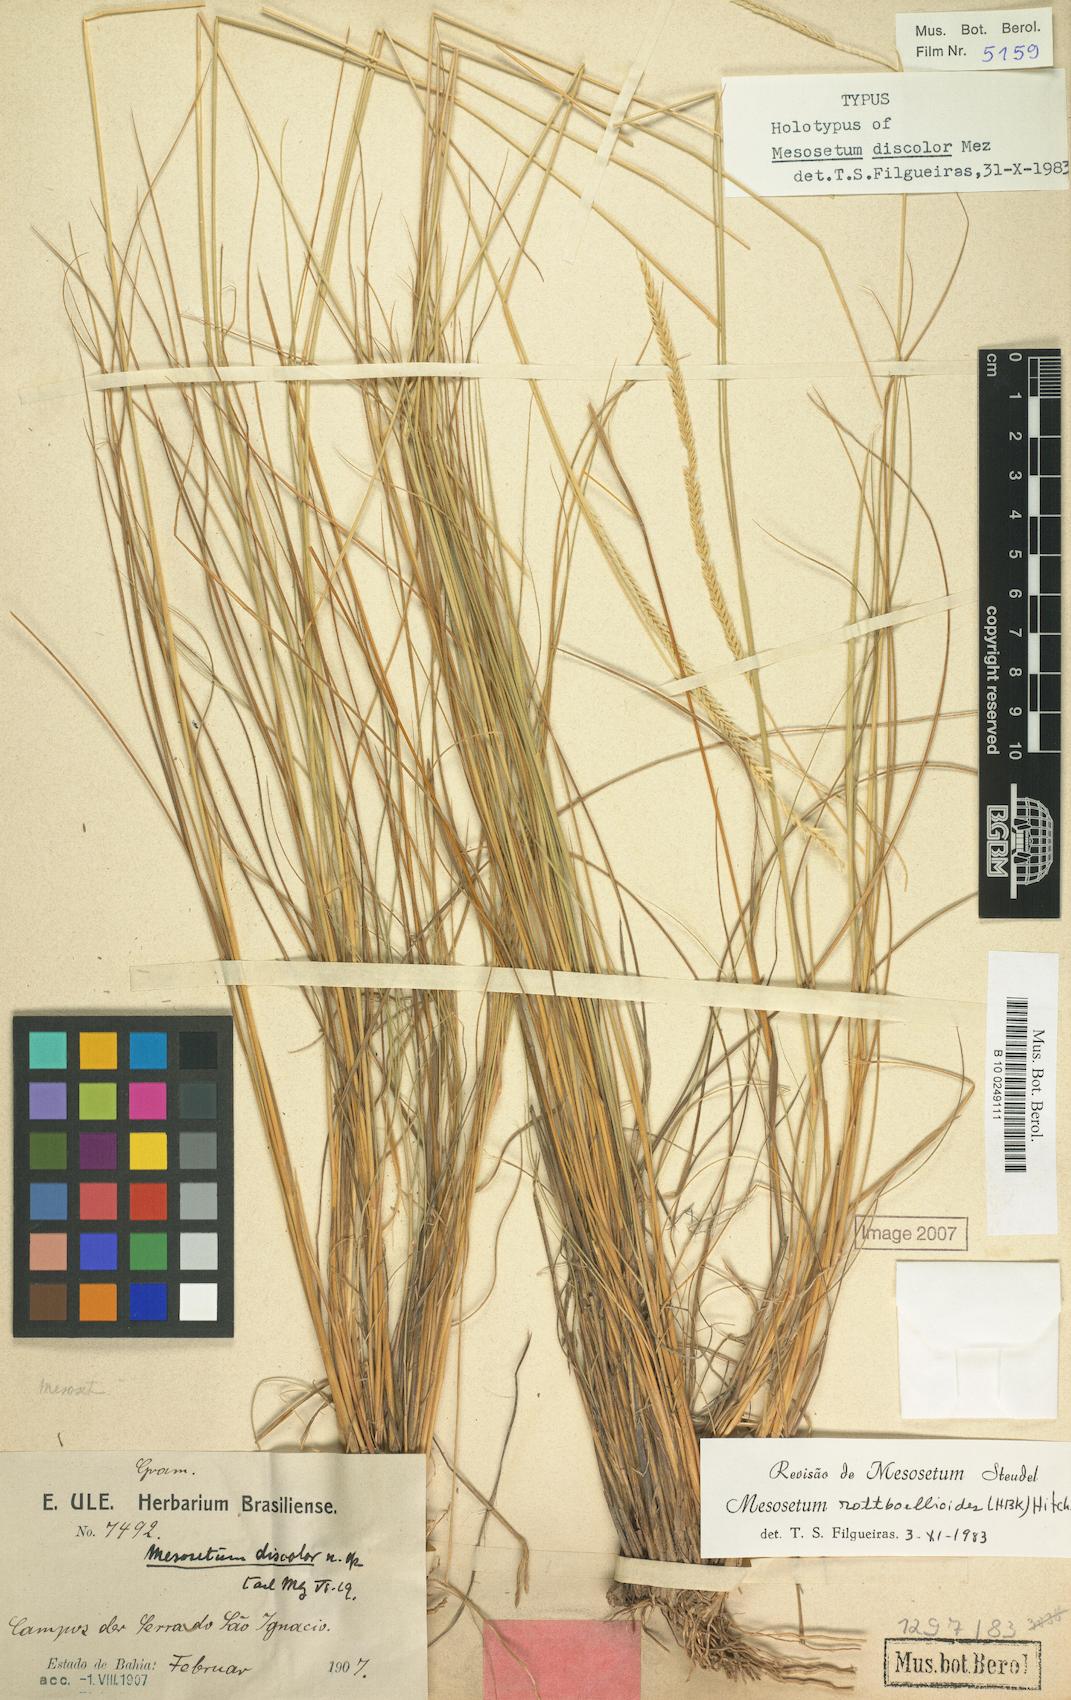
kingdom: Plantae
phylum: Tracheophyta
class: Liliopsida
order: Poales
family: Poaceae
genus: Mesosetum
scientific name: Mesosetum rottboellioides
